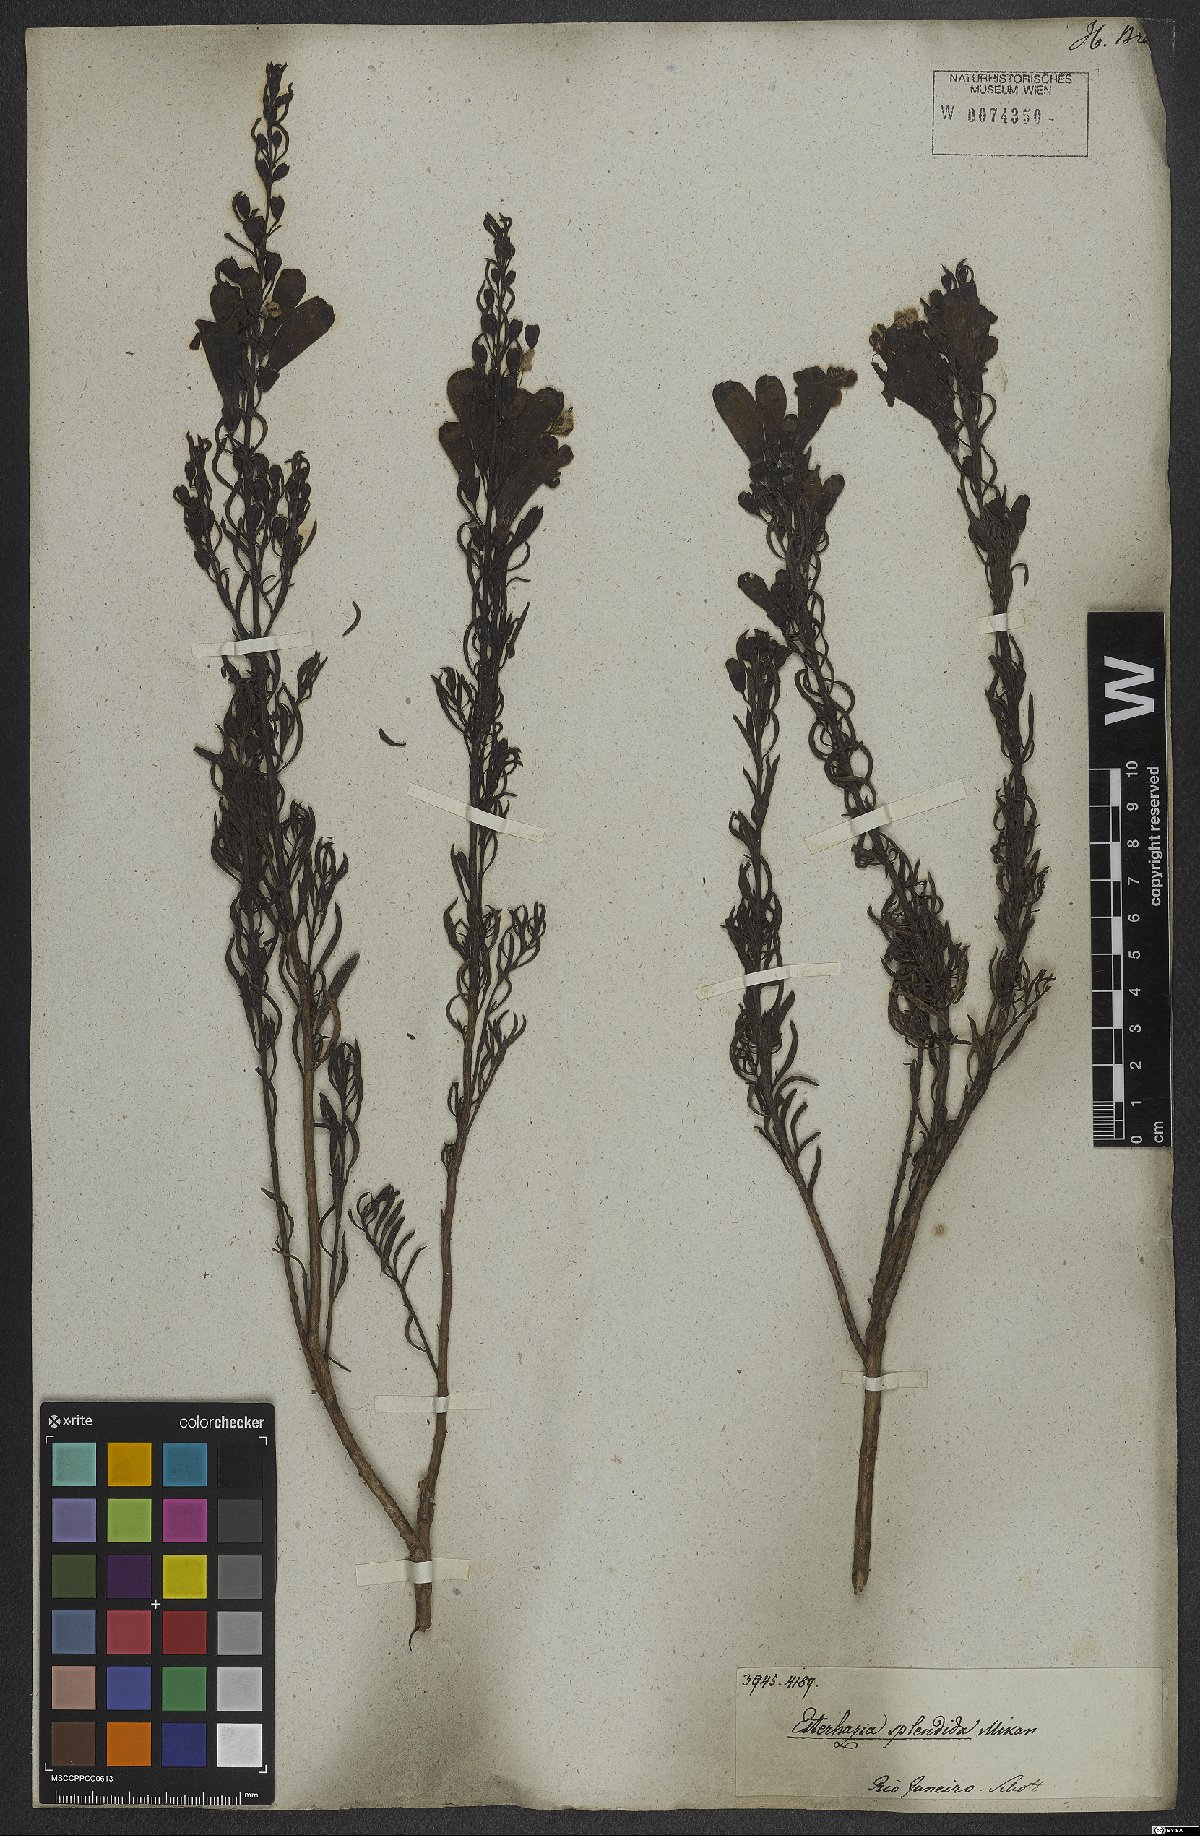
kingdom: Plantae
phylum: Tracheophyta
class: Magnoliopsida
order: Lamiales
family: Orobanchaceae
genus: Esterhazya
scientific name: Esterhazya splendida
